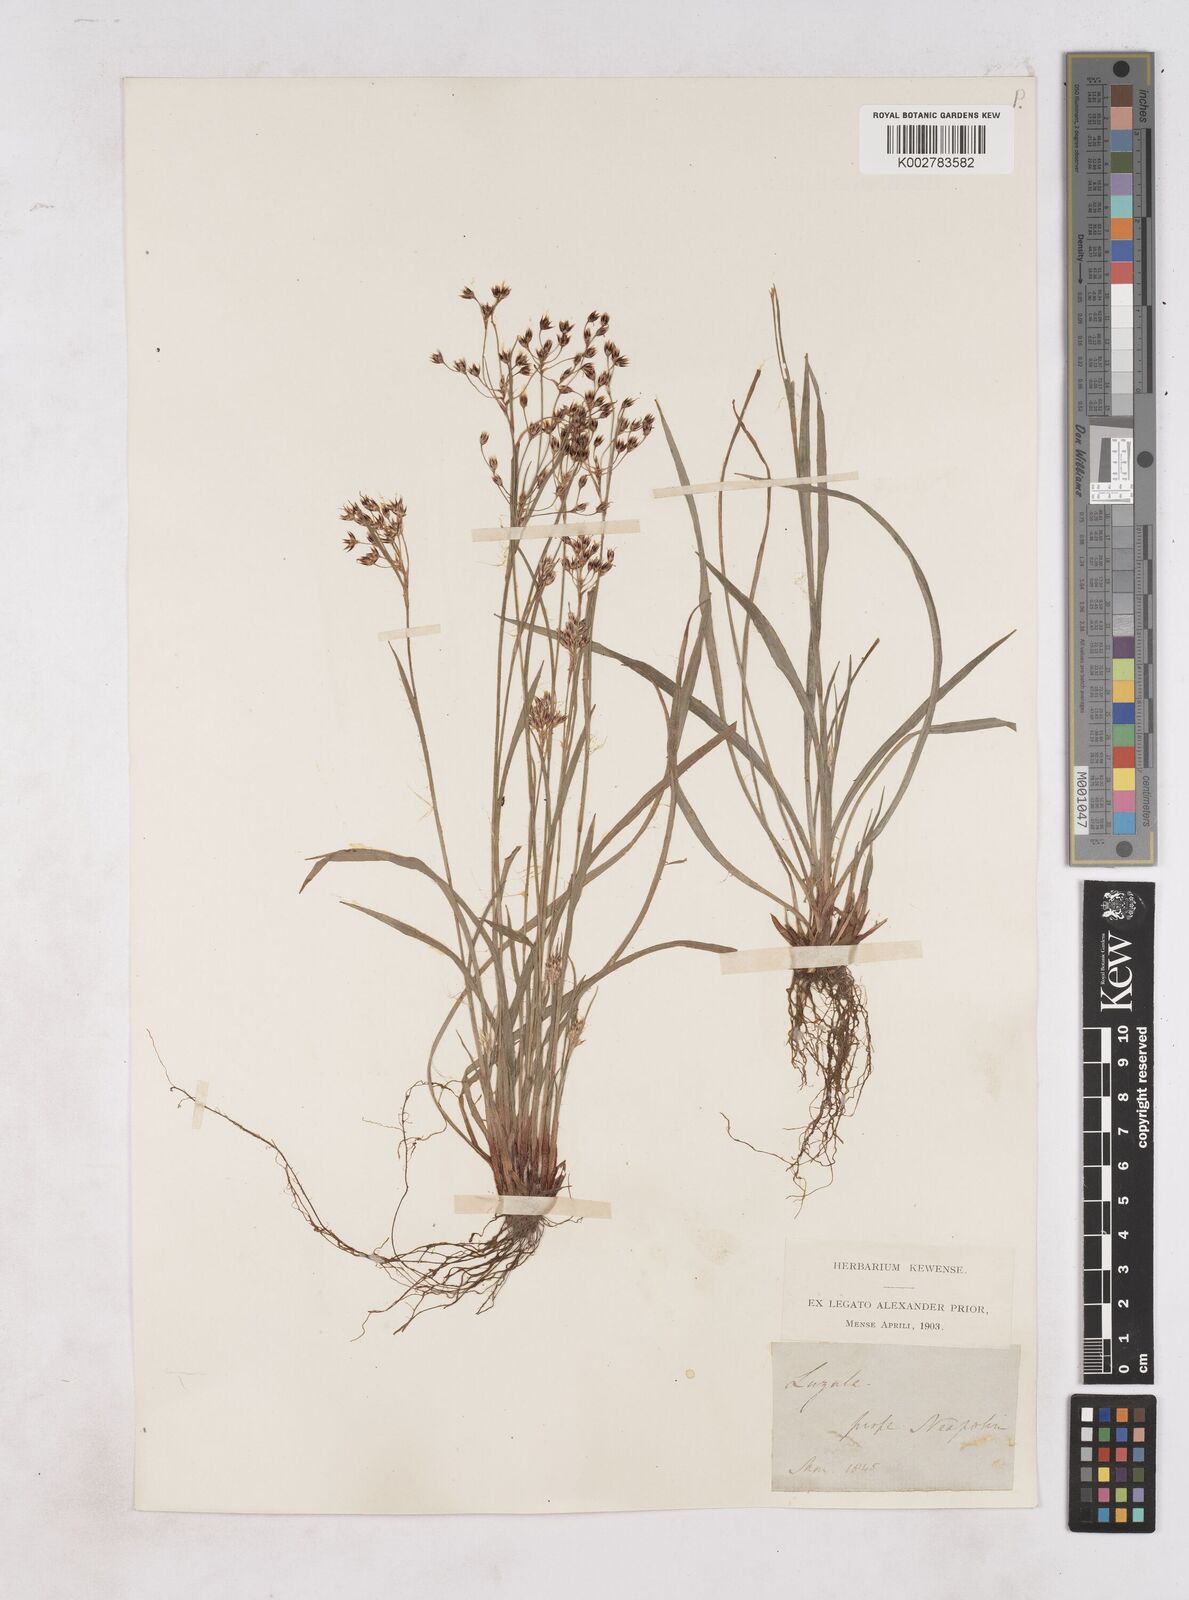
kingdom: Plantae
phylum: Tracheophyta
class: Liliopsida
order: Poales
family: Juncaceae
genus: Luzula
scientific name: Luzula
